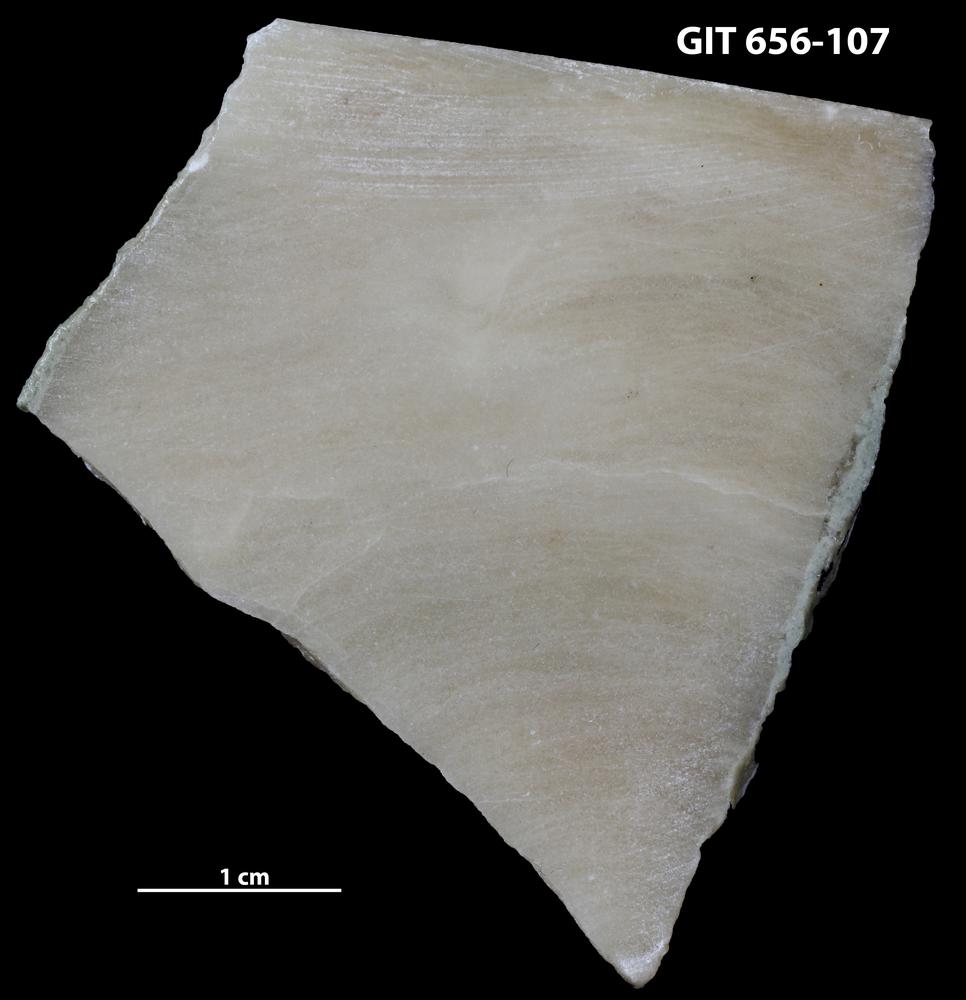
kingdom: Animalia
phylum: Porifera
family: Ecclimadictyidae
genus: Plexodictyon
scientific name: Plexodictyon
